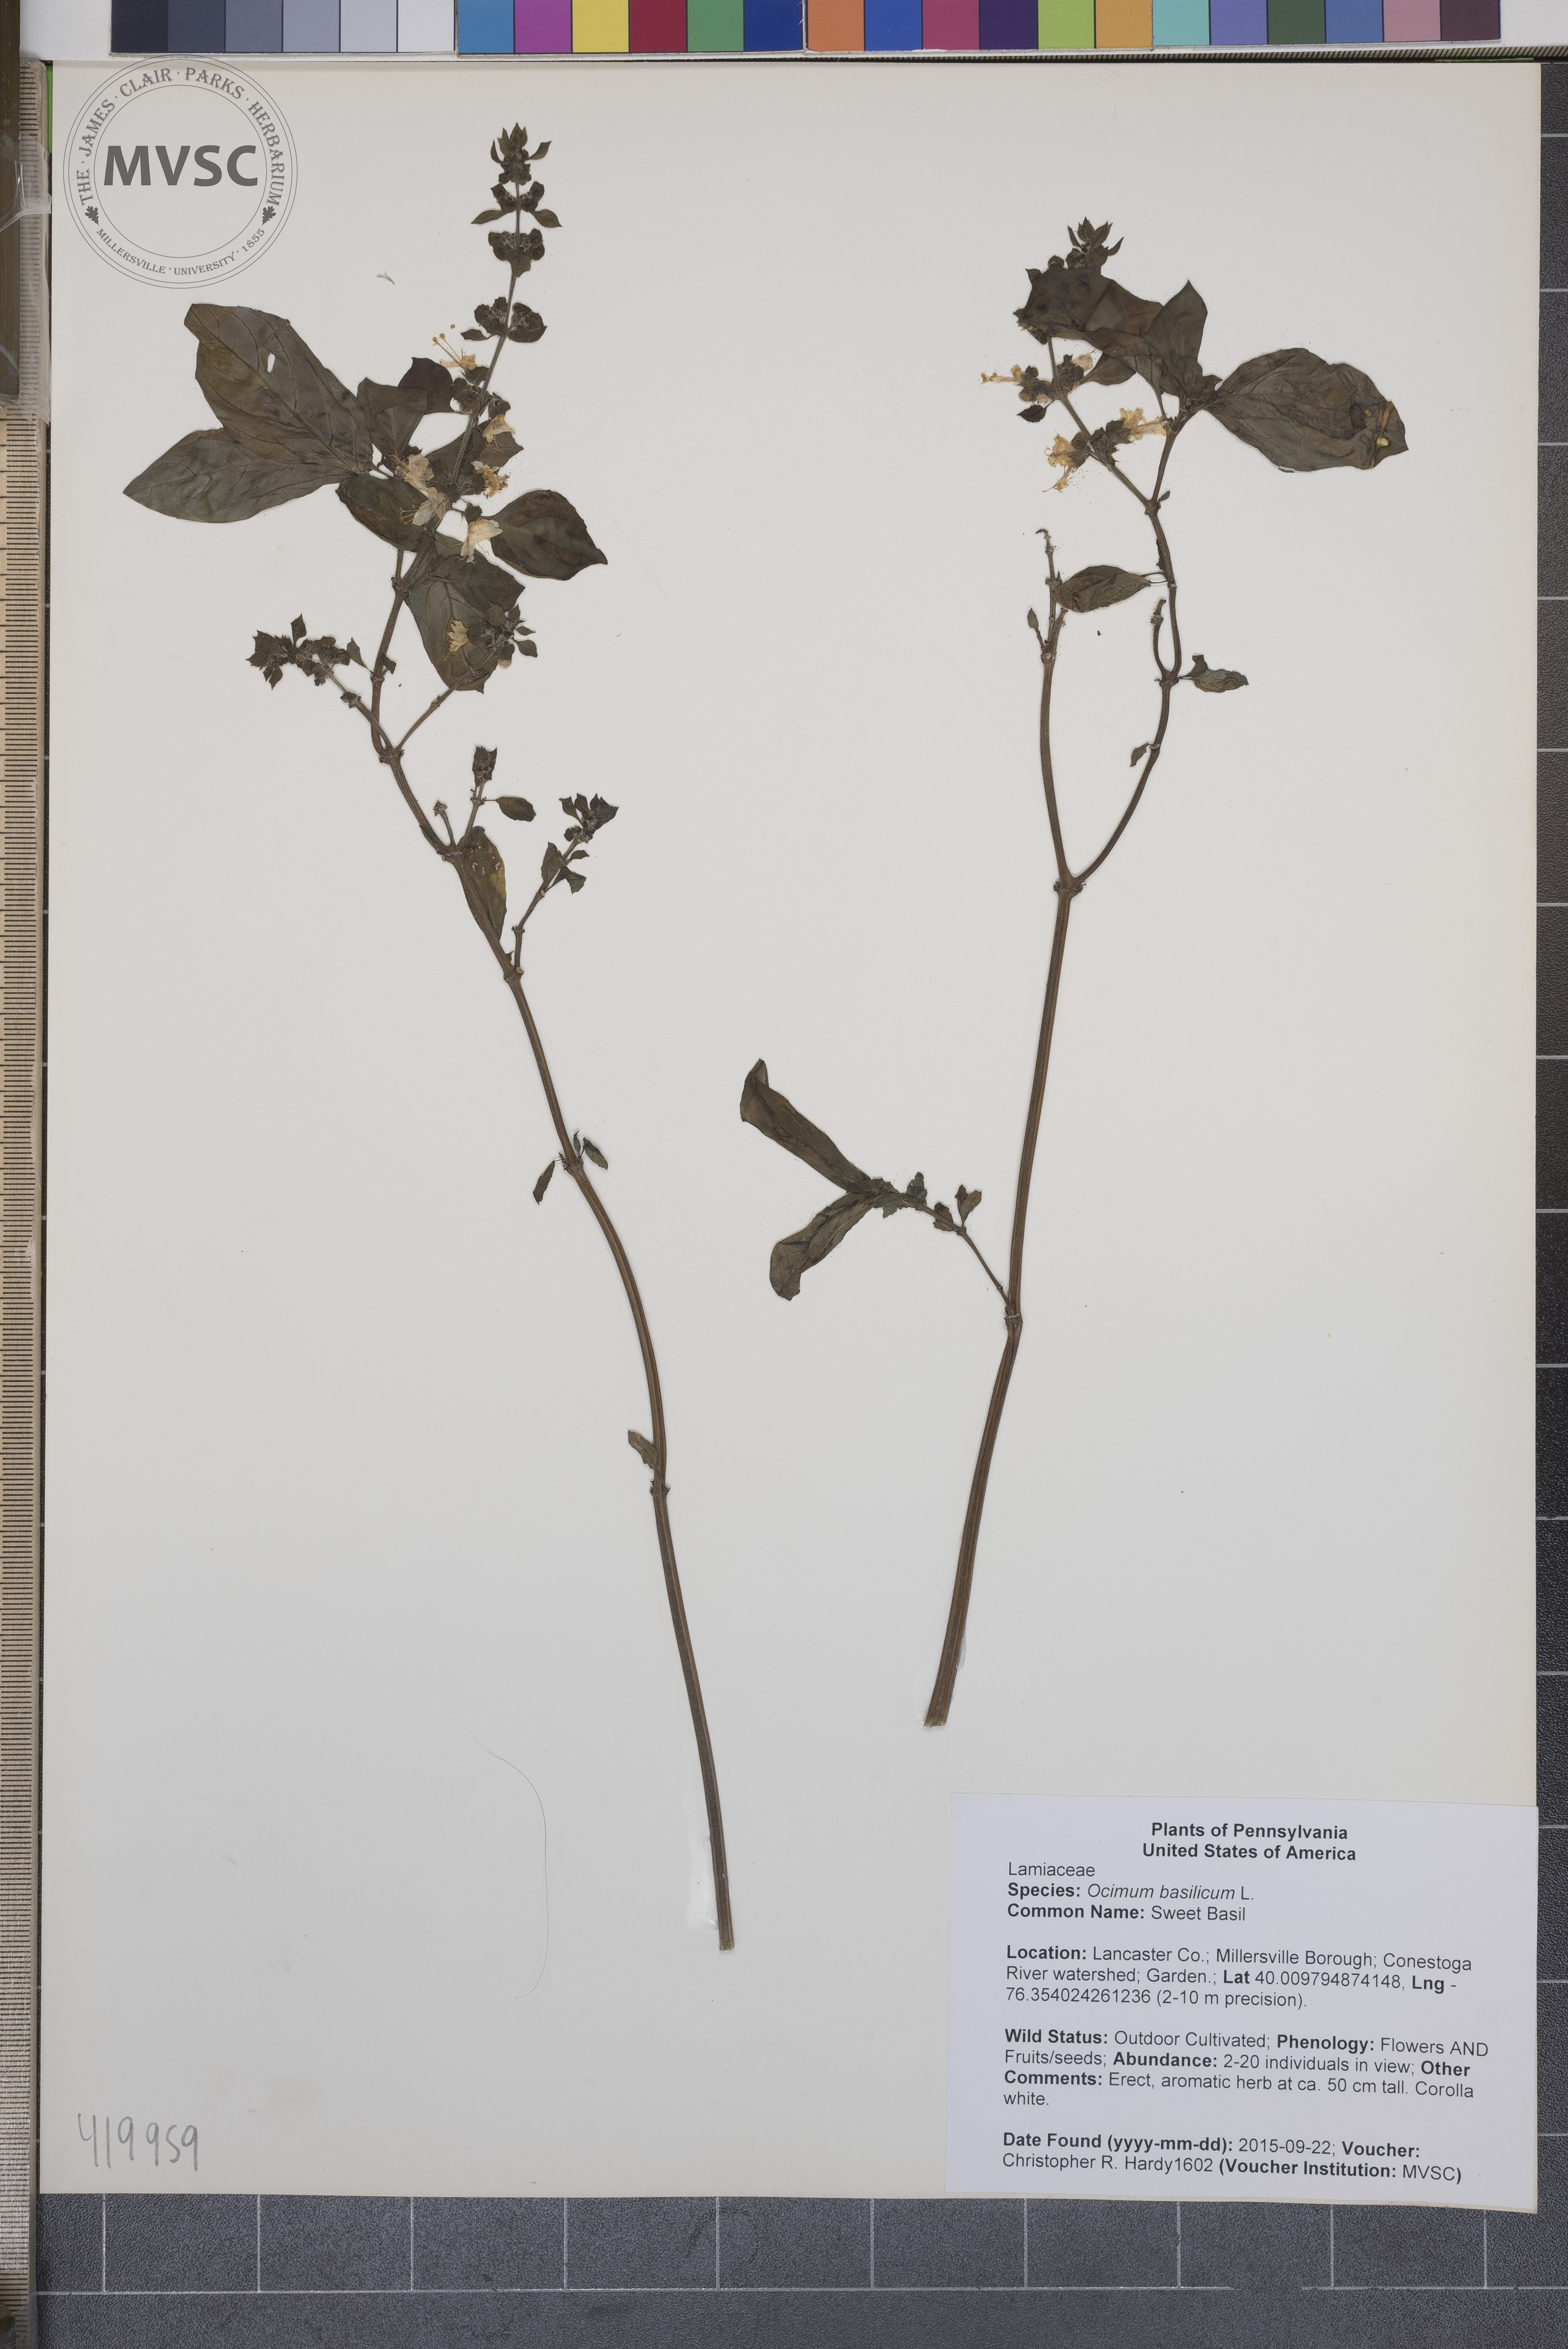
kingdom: Plantae
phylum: Tracheophyta
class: Magnoliopsida
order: Lamiales
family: Lamiaceae
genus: Ocimum
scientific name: Ocimum basilicum
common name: Sweet Basil
